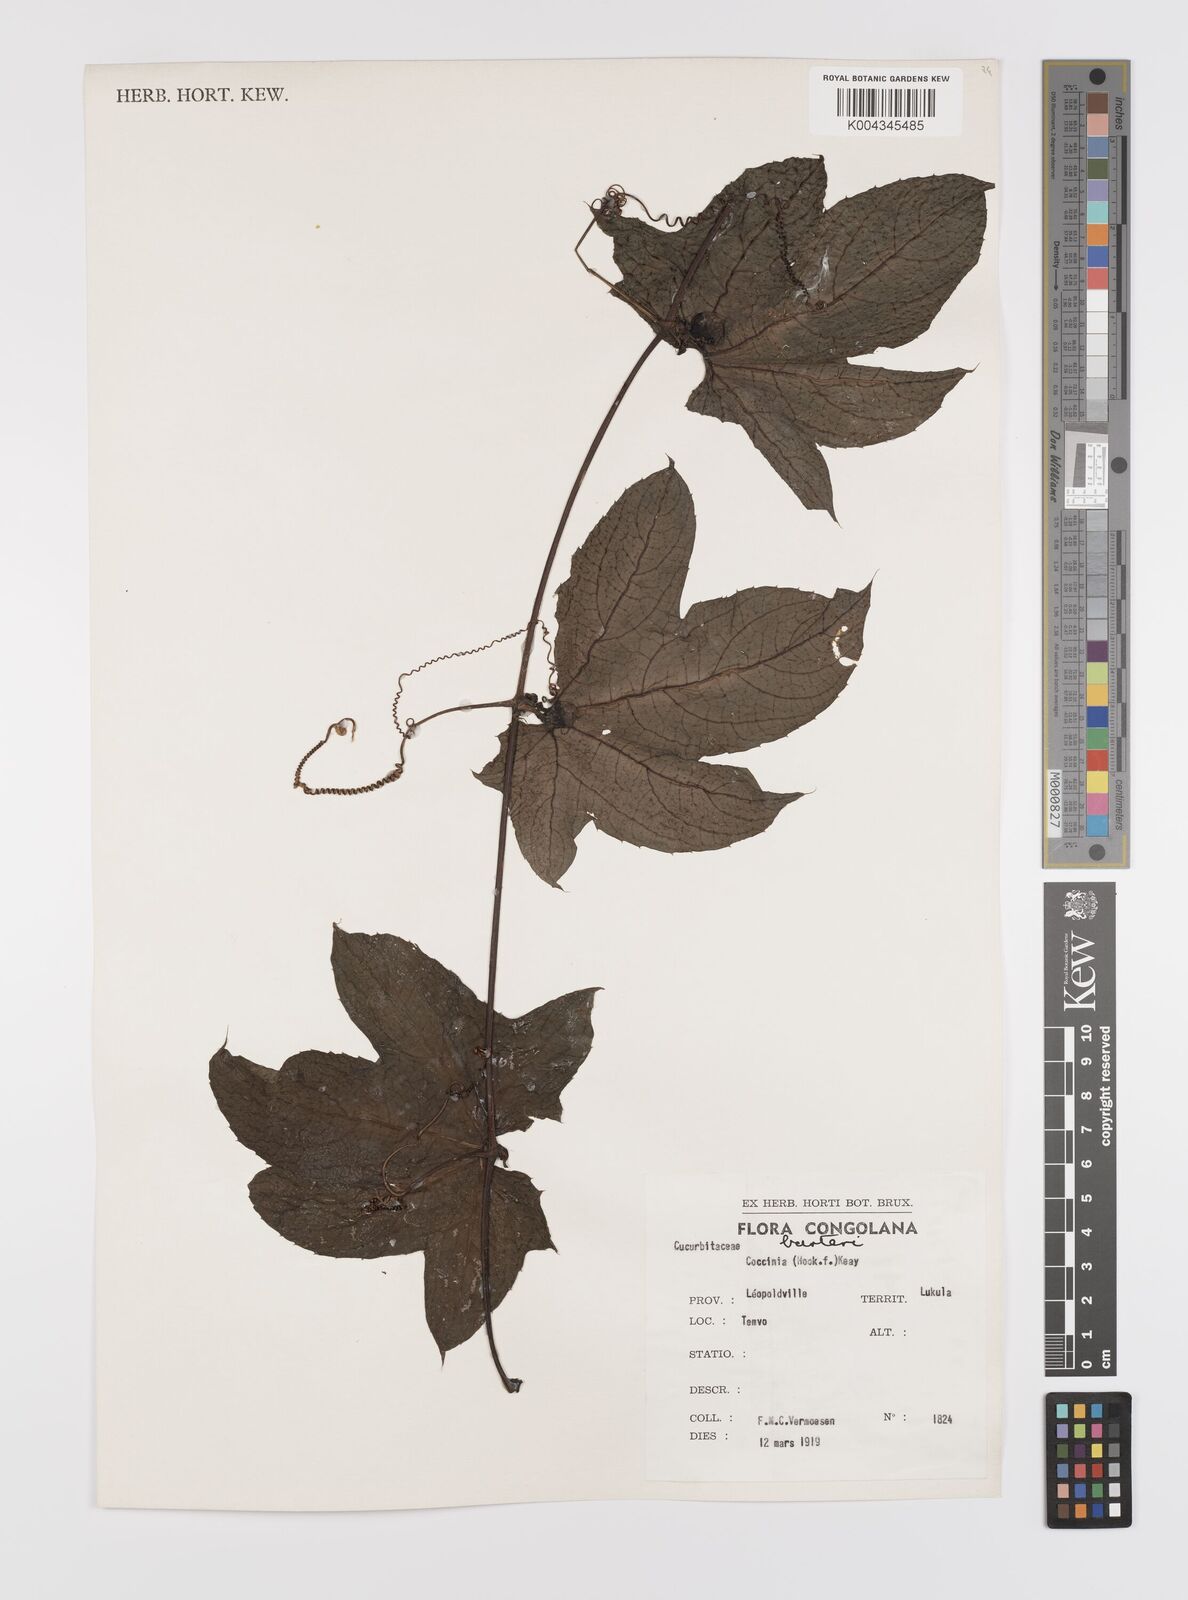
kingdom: Plantae
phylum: Tracheophyta
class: Magnoliopsida
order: Cucurbitales
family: Cucurbitaceae
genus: Coccinia
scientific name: Coccinia barteri
